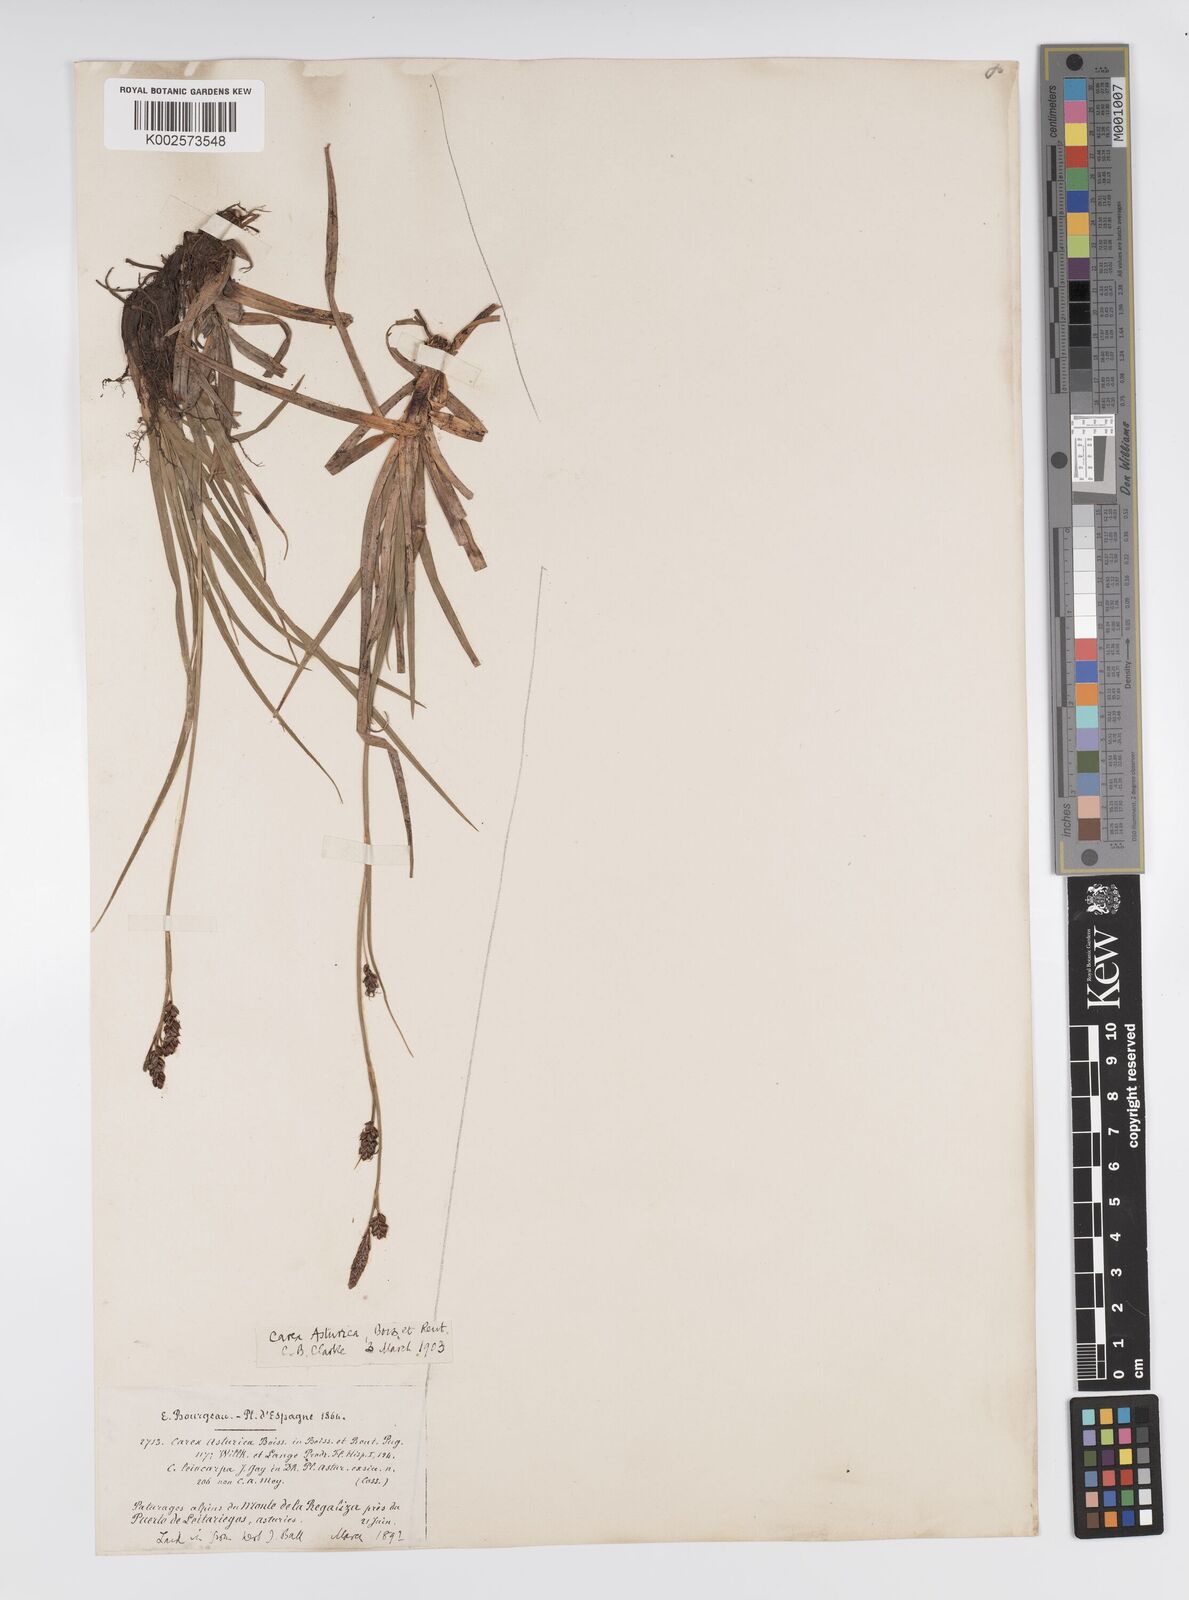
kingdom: Plantae
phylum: Tracheophyta
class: Liliopsida
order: Poales
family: Cyperaceae
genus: Carex
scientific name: Carex asturica
